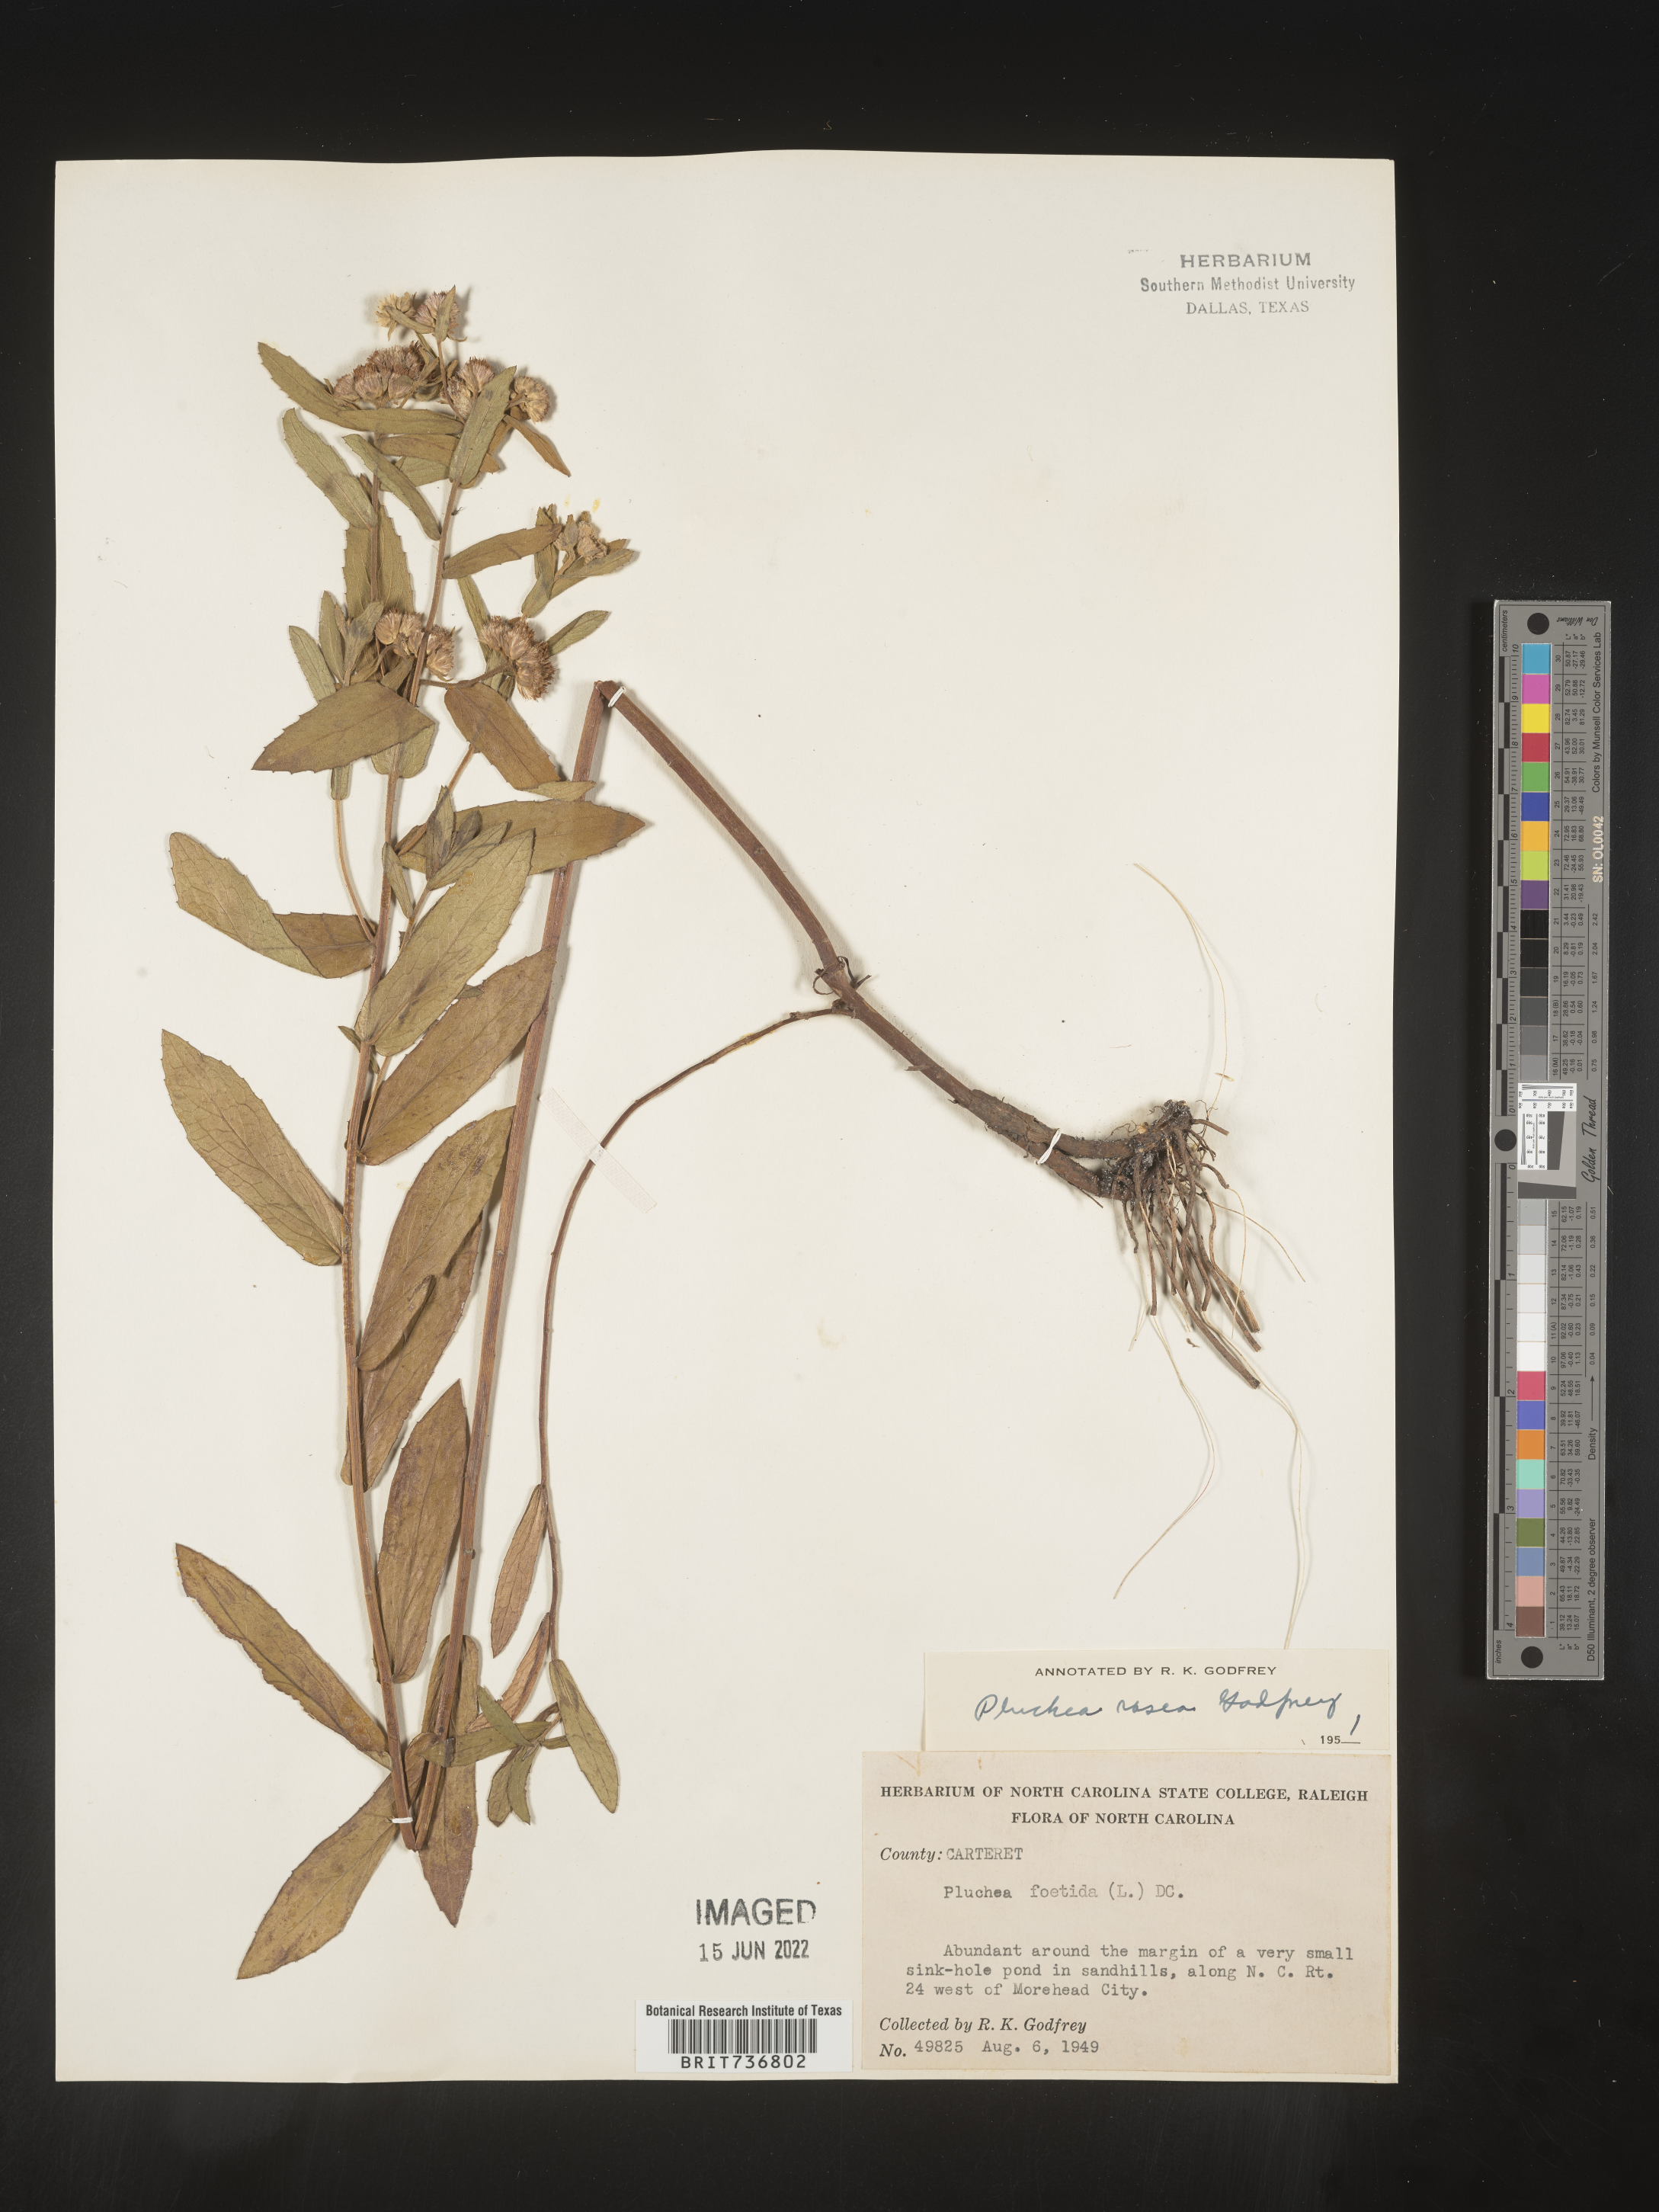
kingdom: Plantae
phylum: Tracheophyta
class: Magnoliopsida
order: Asterales
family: Asteraceae
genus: Pluchea
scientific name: Pluchea baccharis
